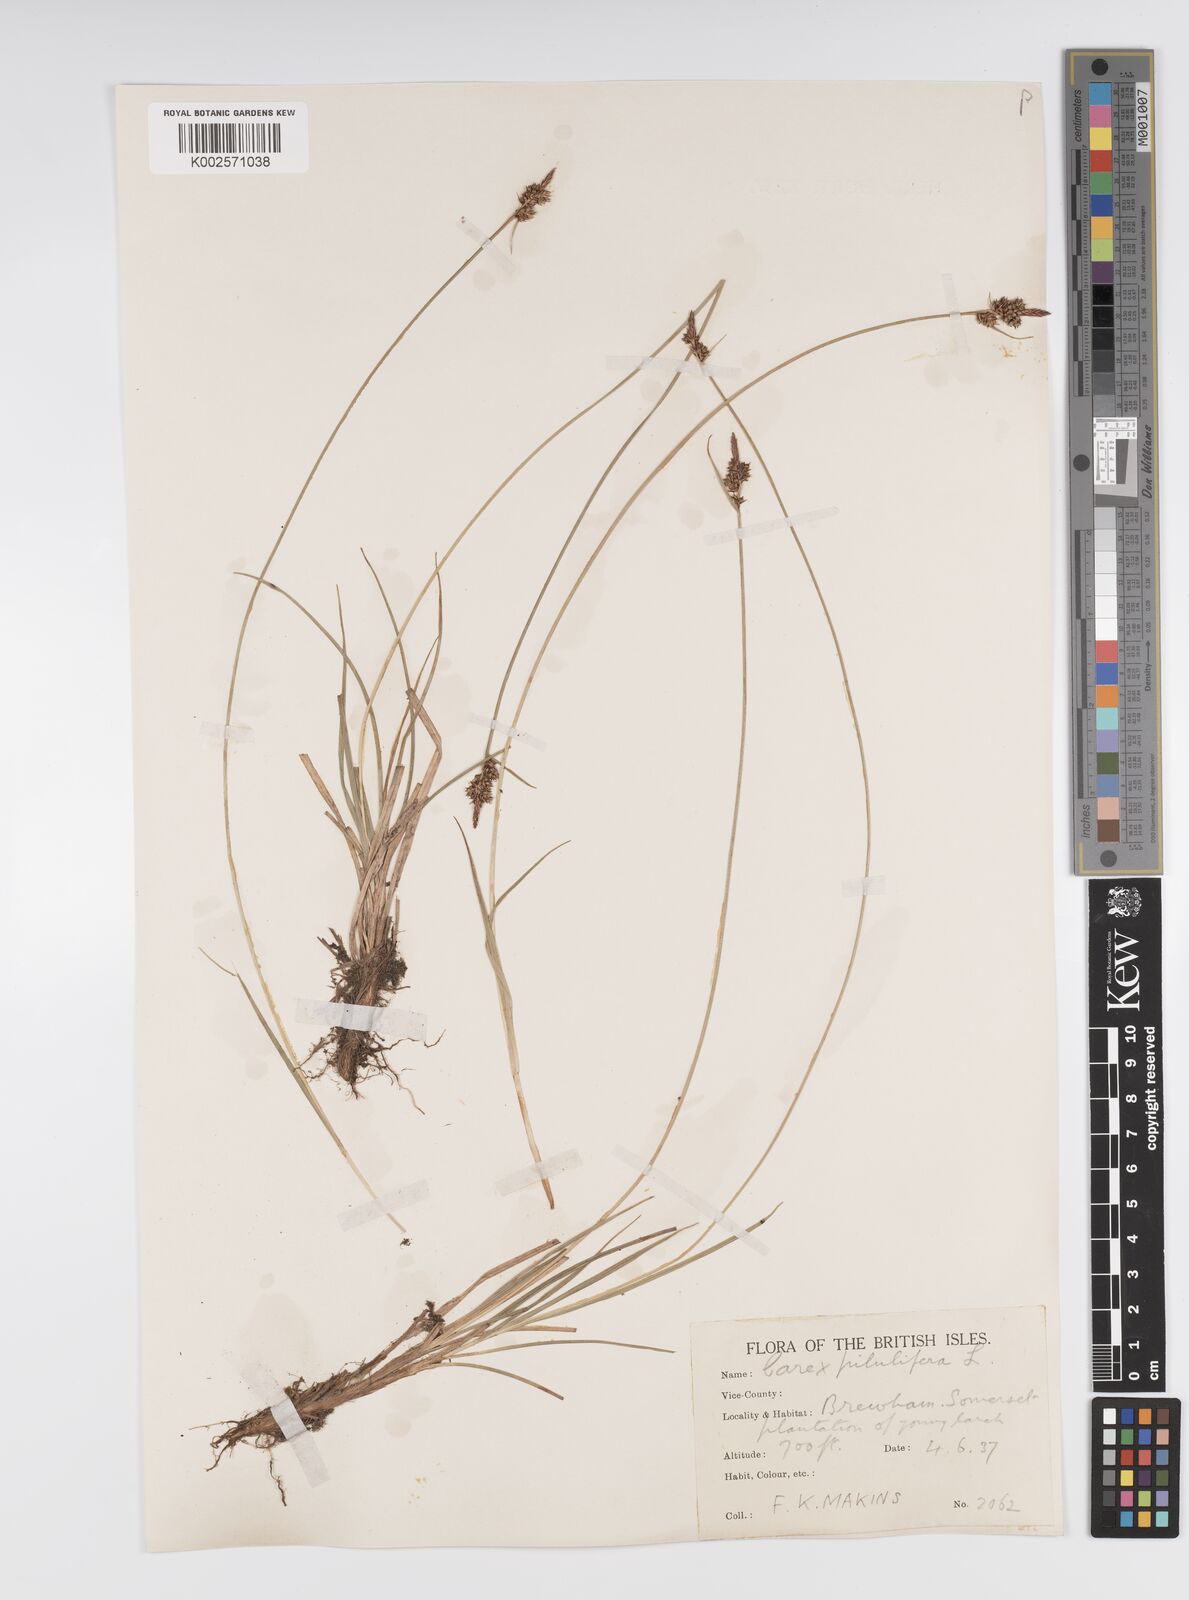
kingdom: Plantae
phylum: Tracheophyta
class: Liliopsida
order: Poales
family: Cyperaceae
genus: Carex
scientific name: Carex pilulifera
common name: Pill sedge
